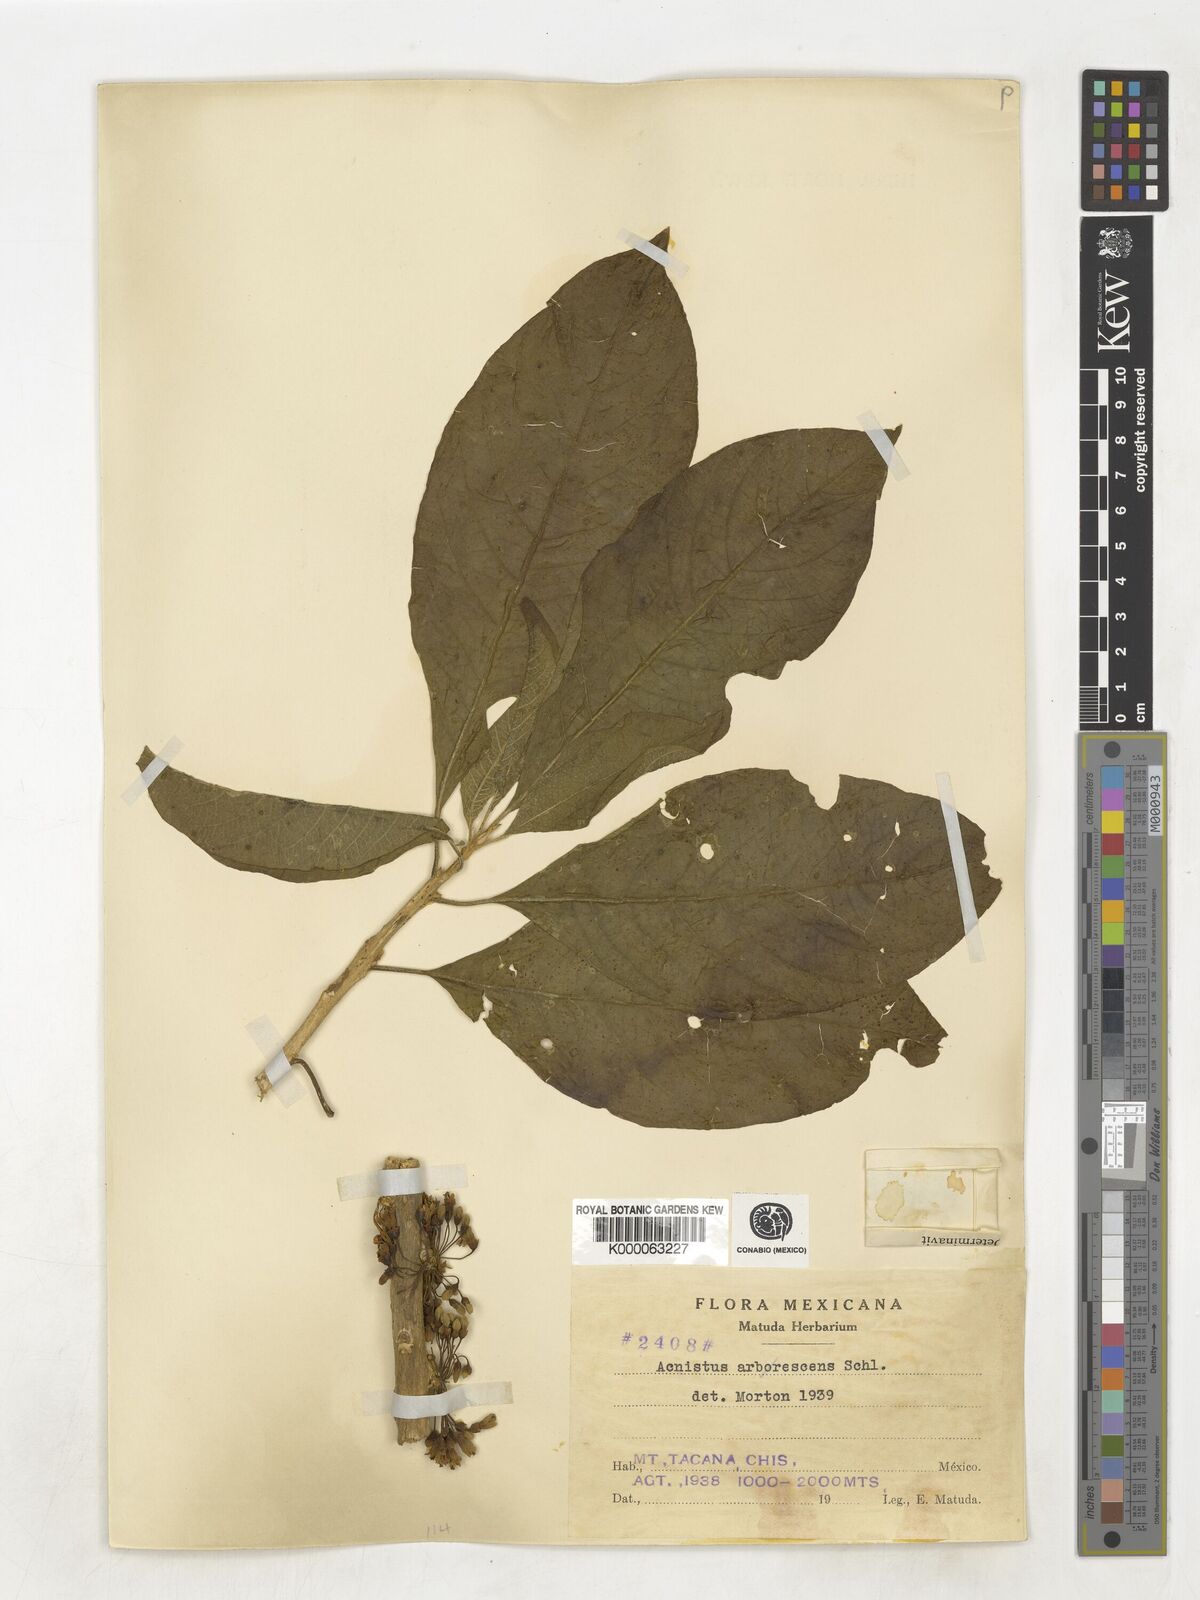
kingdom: Plantae
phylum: Tracheophyta
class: Magnoliopsida
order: Solanales
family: Solanaceae
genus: Iochroma
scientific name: Iochroma arborescens
